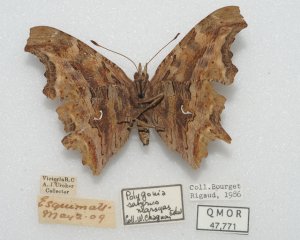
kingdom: Animalia
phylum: Arthropoda
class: Insecta
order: Lepidoptera
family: Nymphalidae
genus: Polygonia
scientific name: Polygonia satyrus
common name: Satyr Comma
